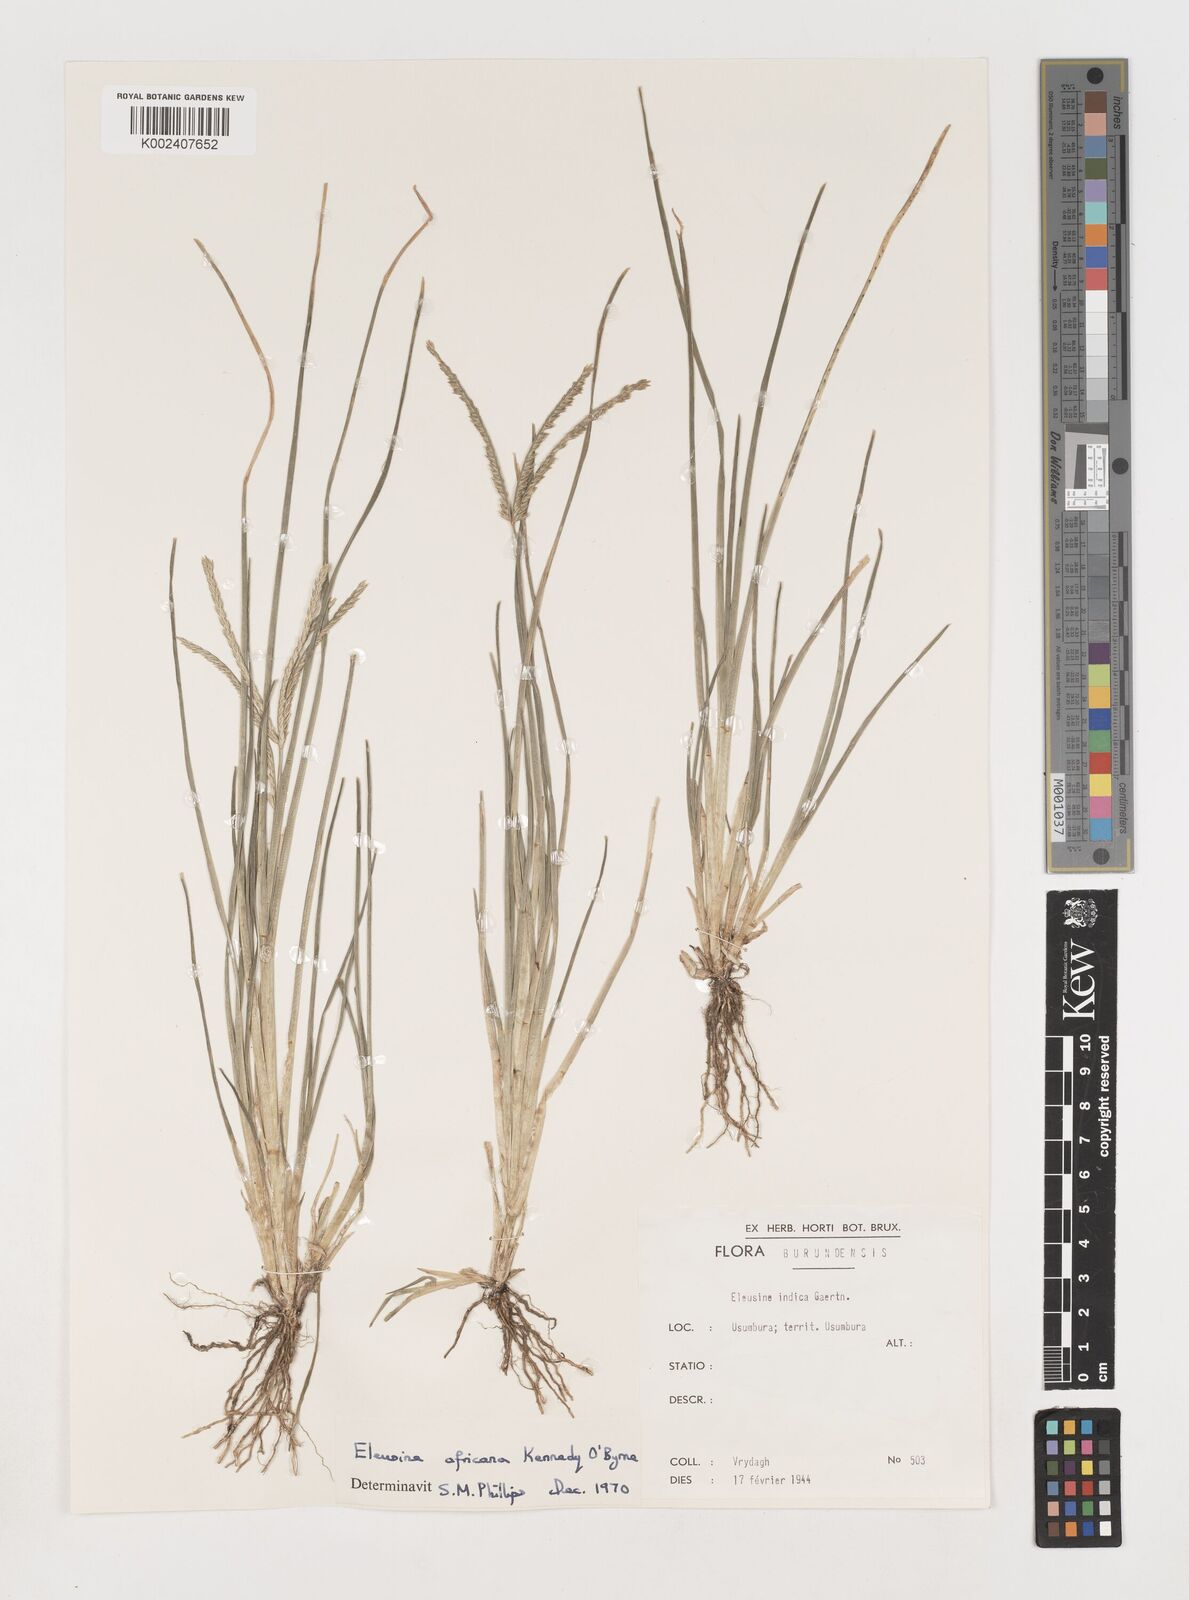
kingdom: Plantae
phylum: Tracheophyta
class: Liliopsida
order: Poales
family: Poaceae
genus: Eleusine
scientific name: Eleusine africana
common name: Wild african finger millet
